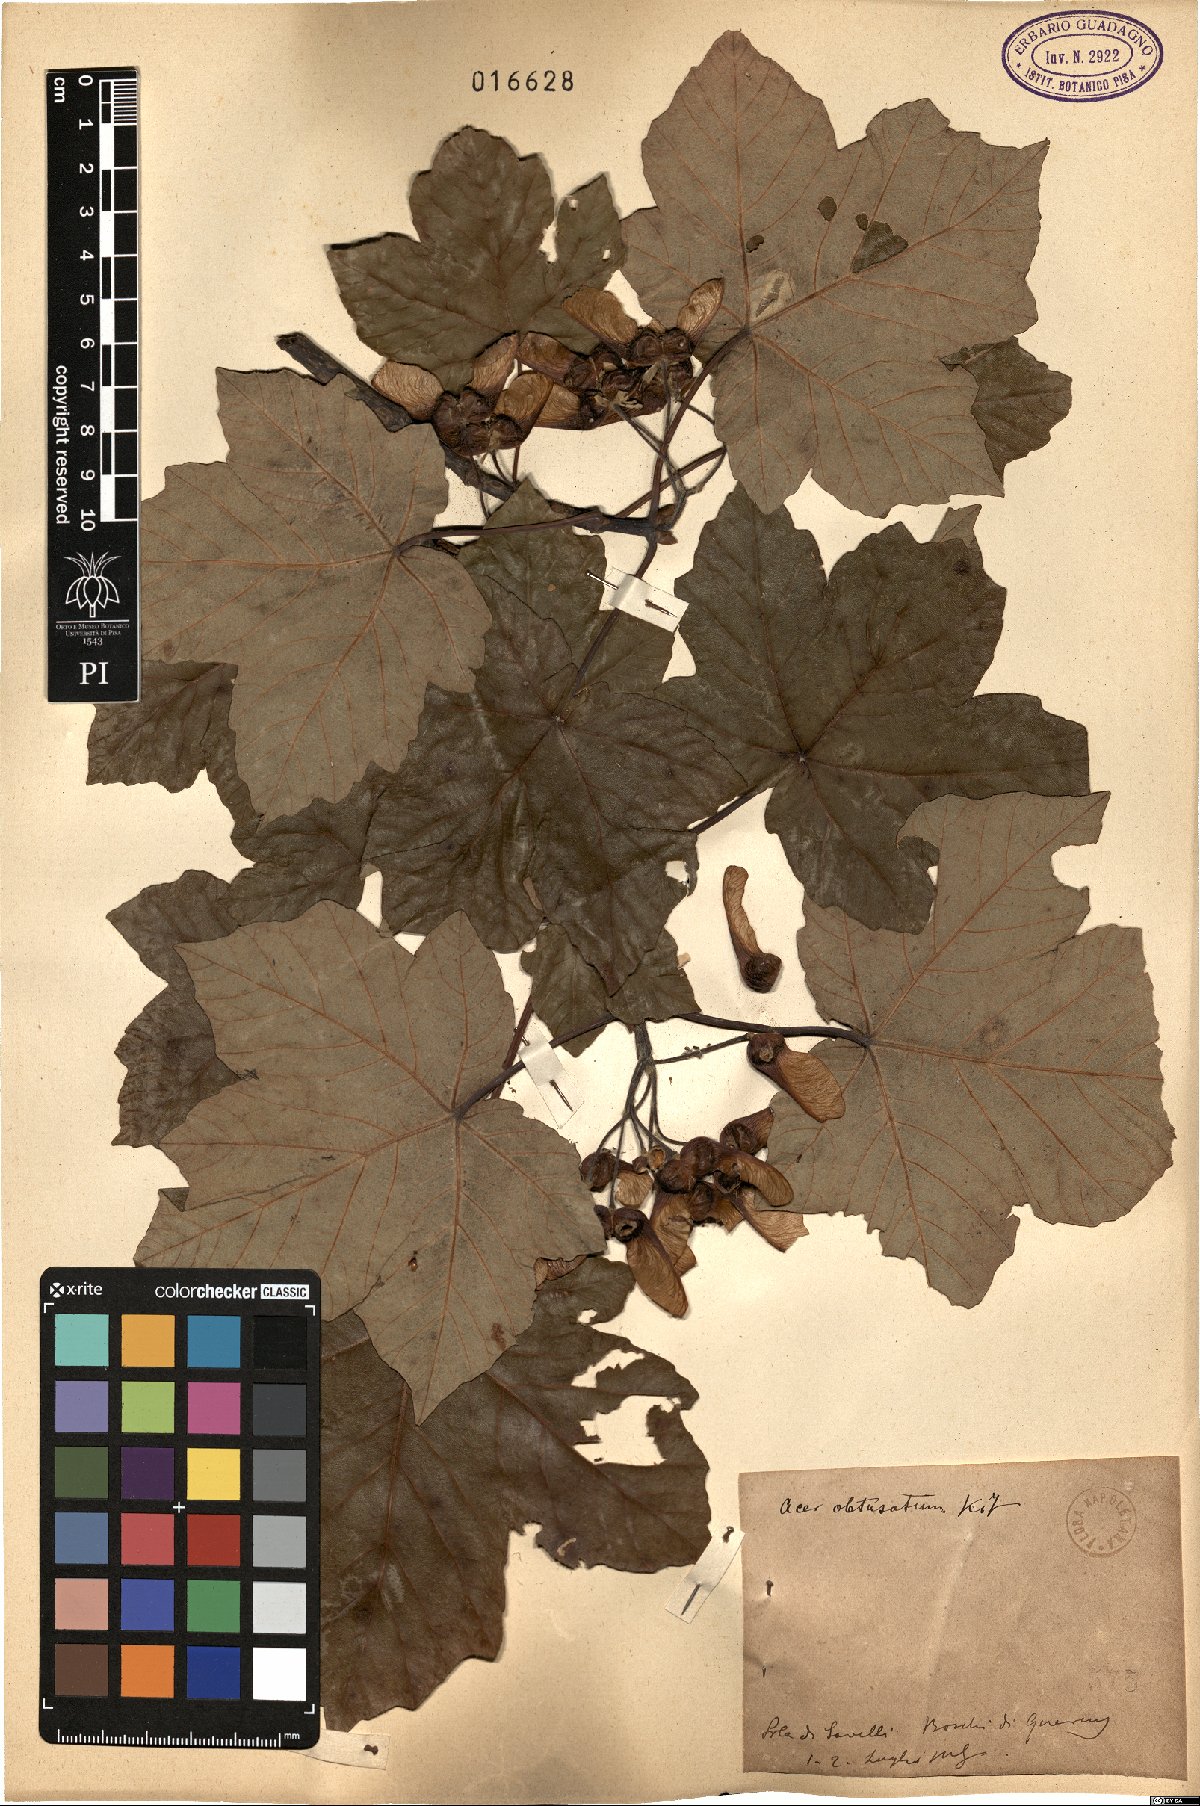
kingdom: Plantae
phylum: Tracheophyta
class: Magnoliopsida
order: Sapindales
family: Sapindaceae
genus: Acer
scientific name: Acer obtusatum
